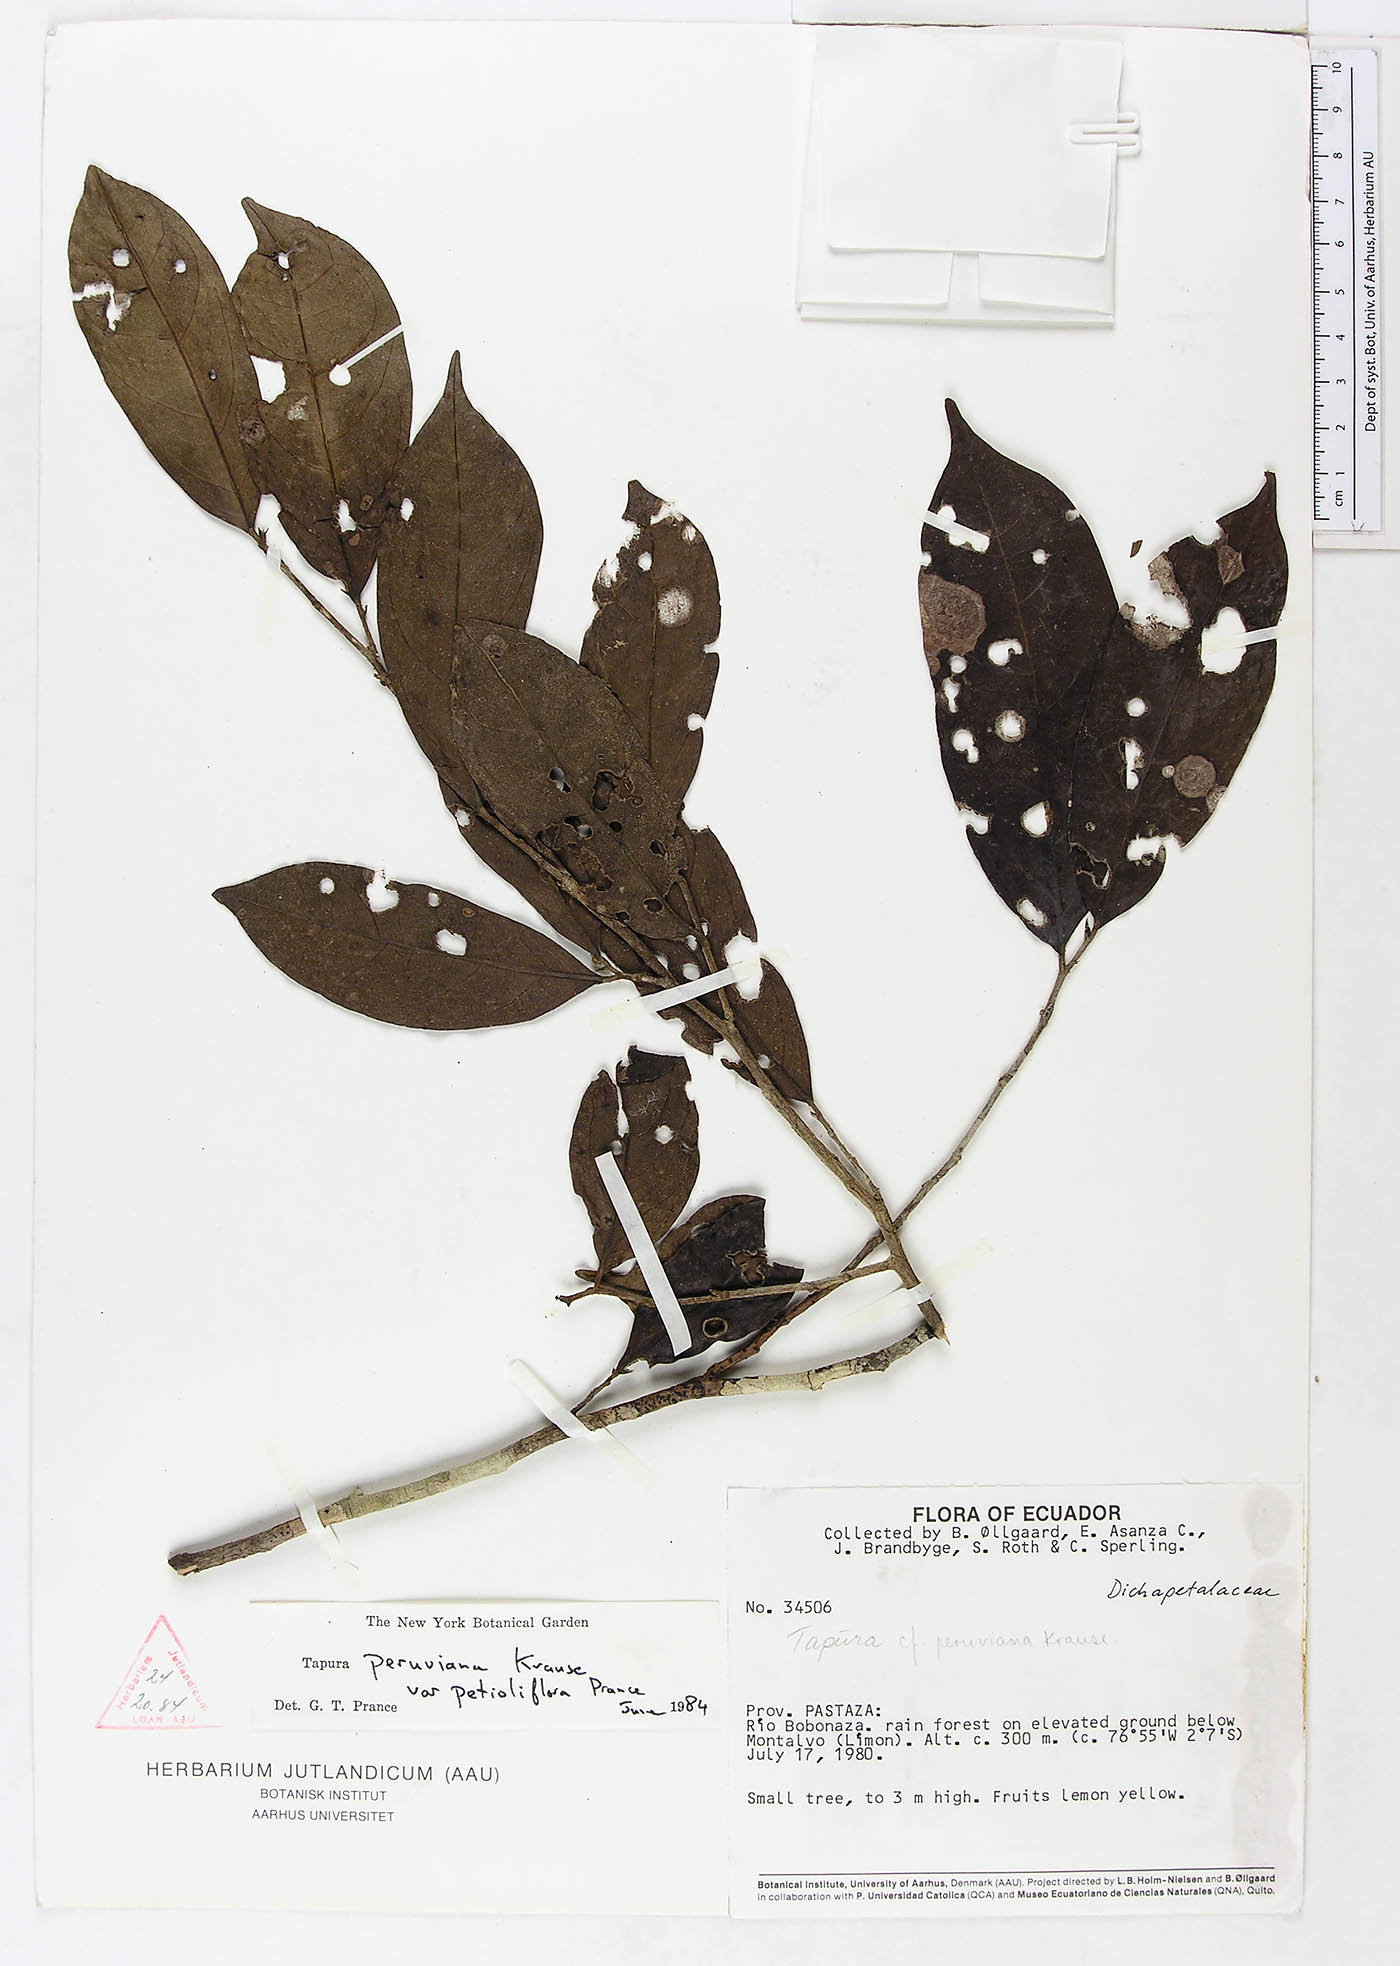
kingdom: Plantae
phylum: Tracheophyta
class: Magnoliopsida
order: Malpighiales
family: Dichapetalaceae
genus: Tapura
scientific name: Tapura peruviana
